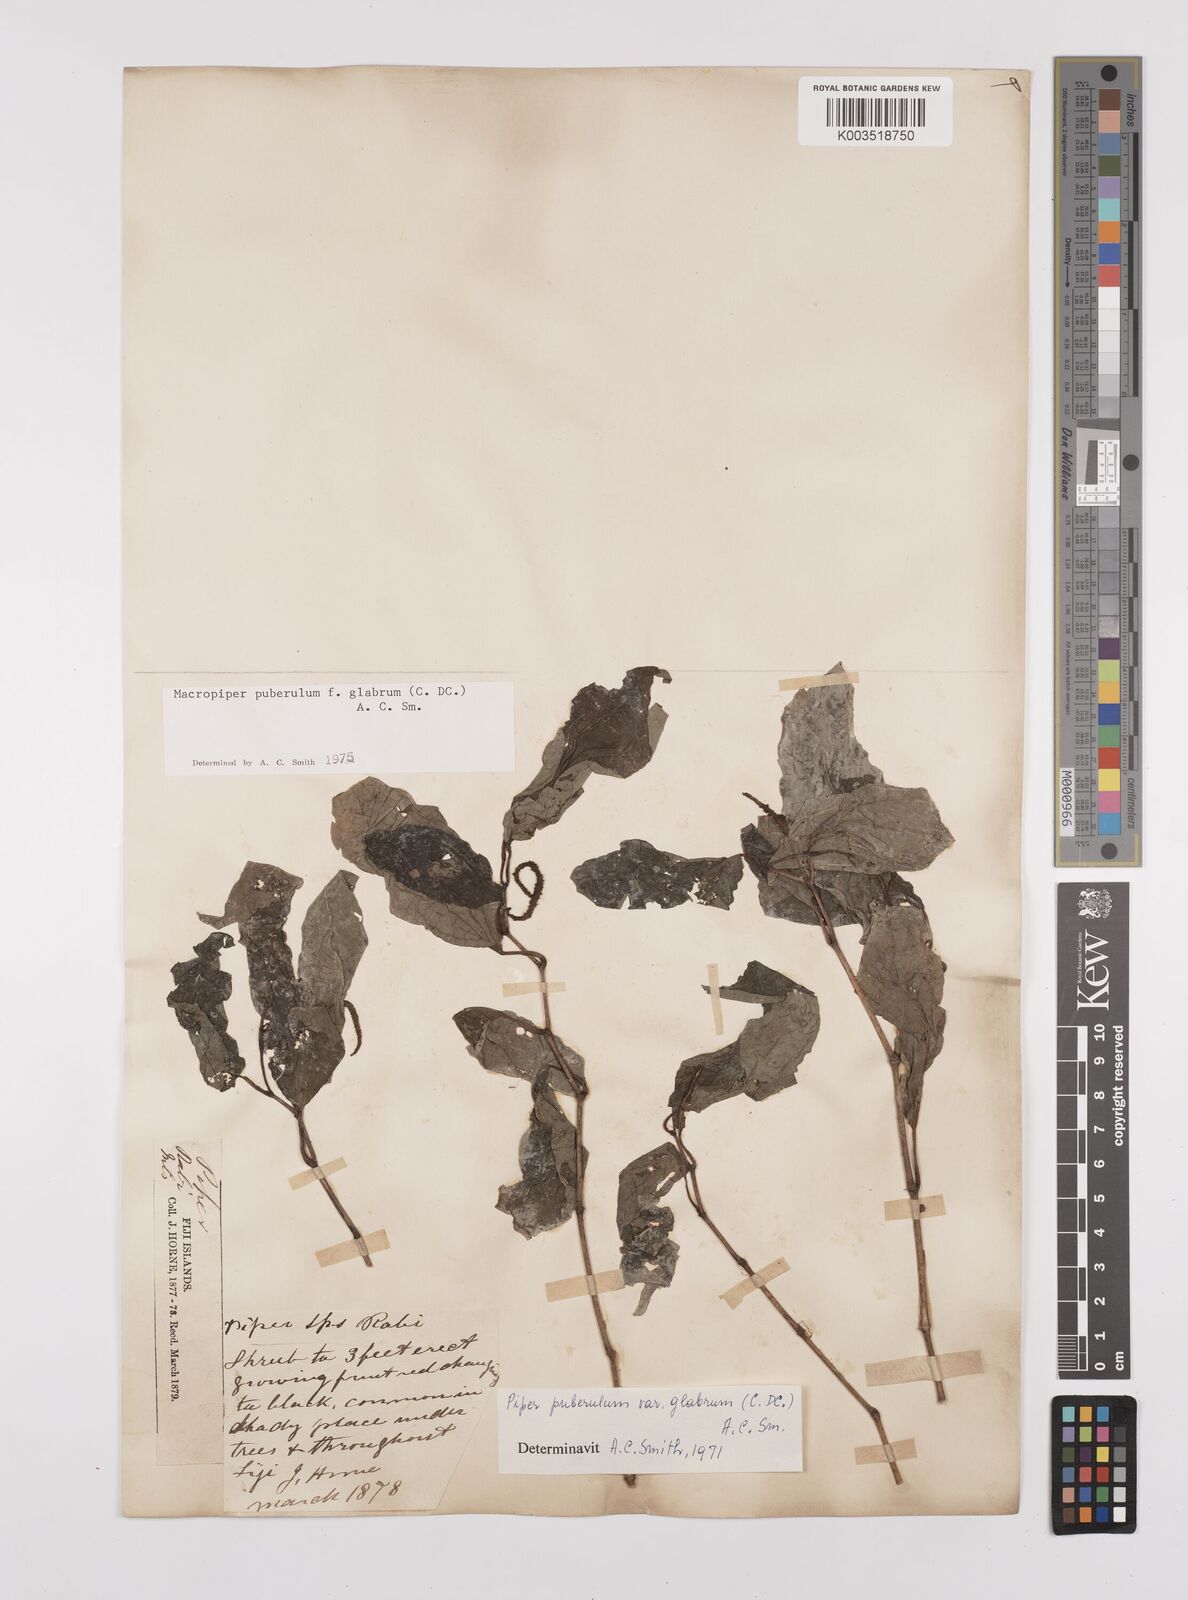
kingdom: Plantae
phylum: Tracheophyta
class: Magnoliopsida
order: Piperales
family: Piperaceae
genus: Macropiper
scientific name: Macropiper puberulum
